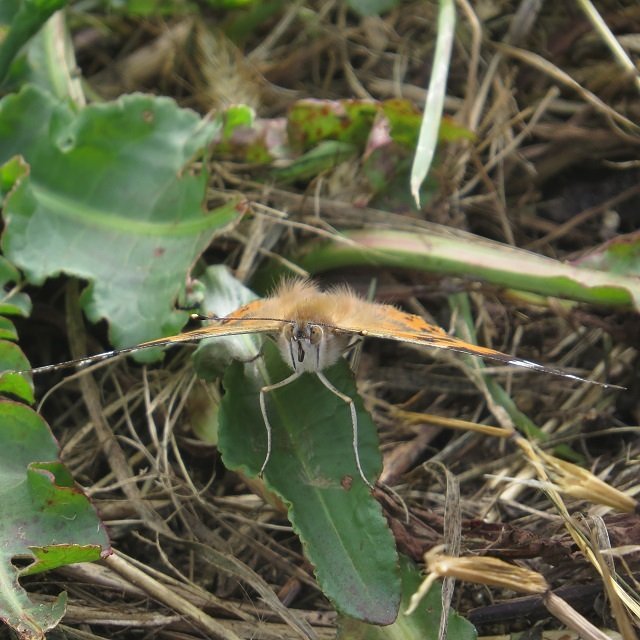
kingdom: Animalia
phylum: Arthropoda
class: Insecta
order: Lepidoptera
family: Nymphalidae
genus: Vanessa
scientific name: Vanessa cardui
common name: Painted Lady
